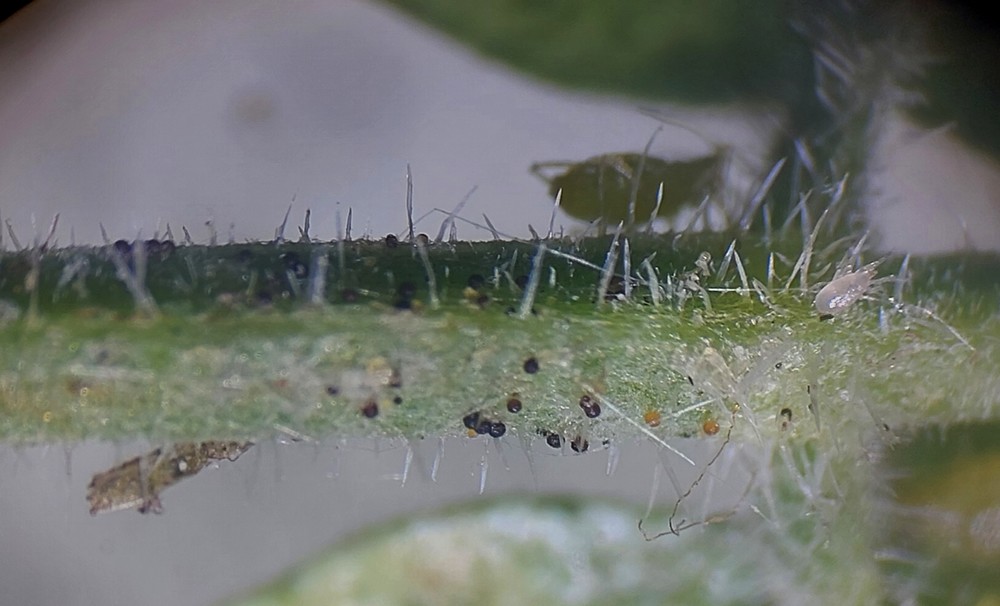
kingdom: Fungi
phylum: Ascomycota
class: Leotiomycetes
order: Helotiales
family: Erysiphaceae
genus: Erysiphe
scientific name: Erysiphe heraclei
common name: skærmplante-meldug
